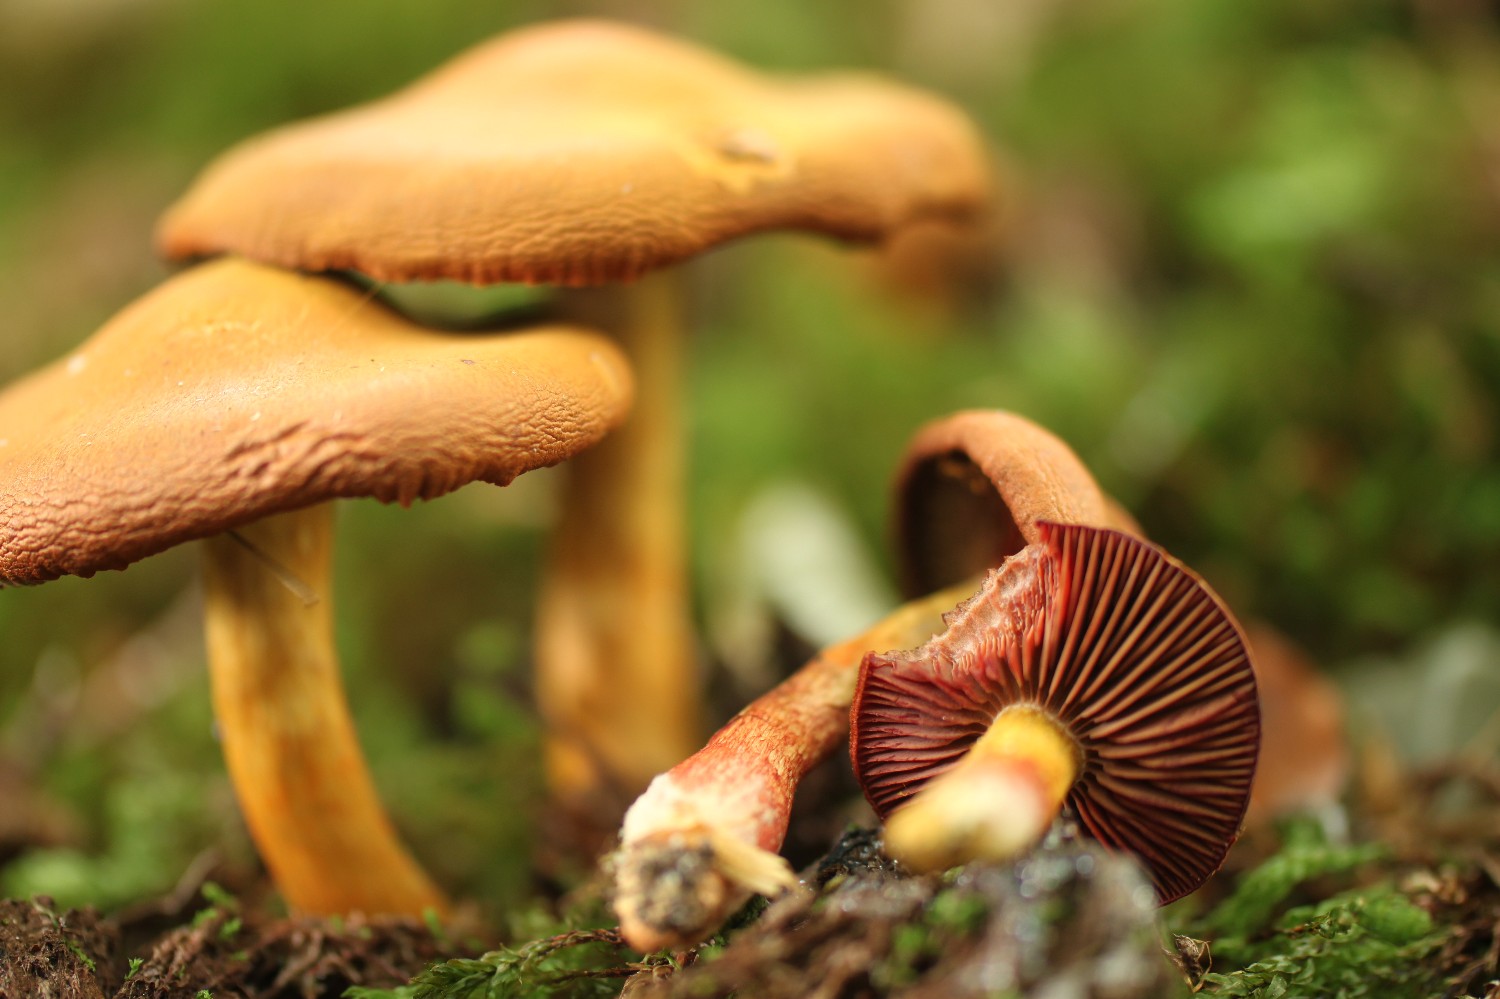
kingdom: Fungi
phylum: Basidiomycota
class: Agaricomycetes
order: Agaricales
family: Cortinariaceae
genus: Cortinarius
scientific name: Cortinarius
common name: cinnoberbladet slørhat
